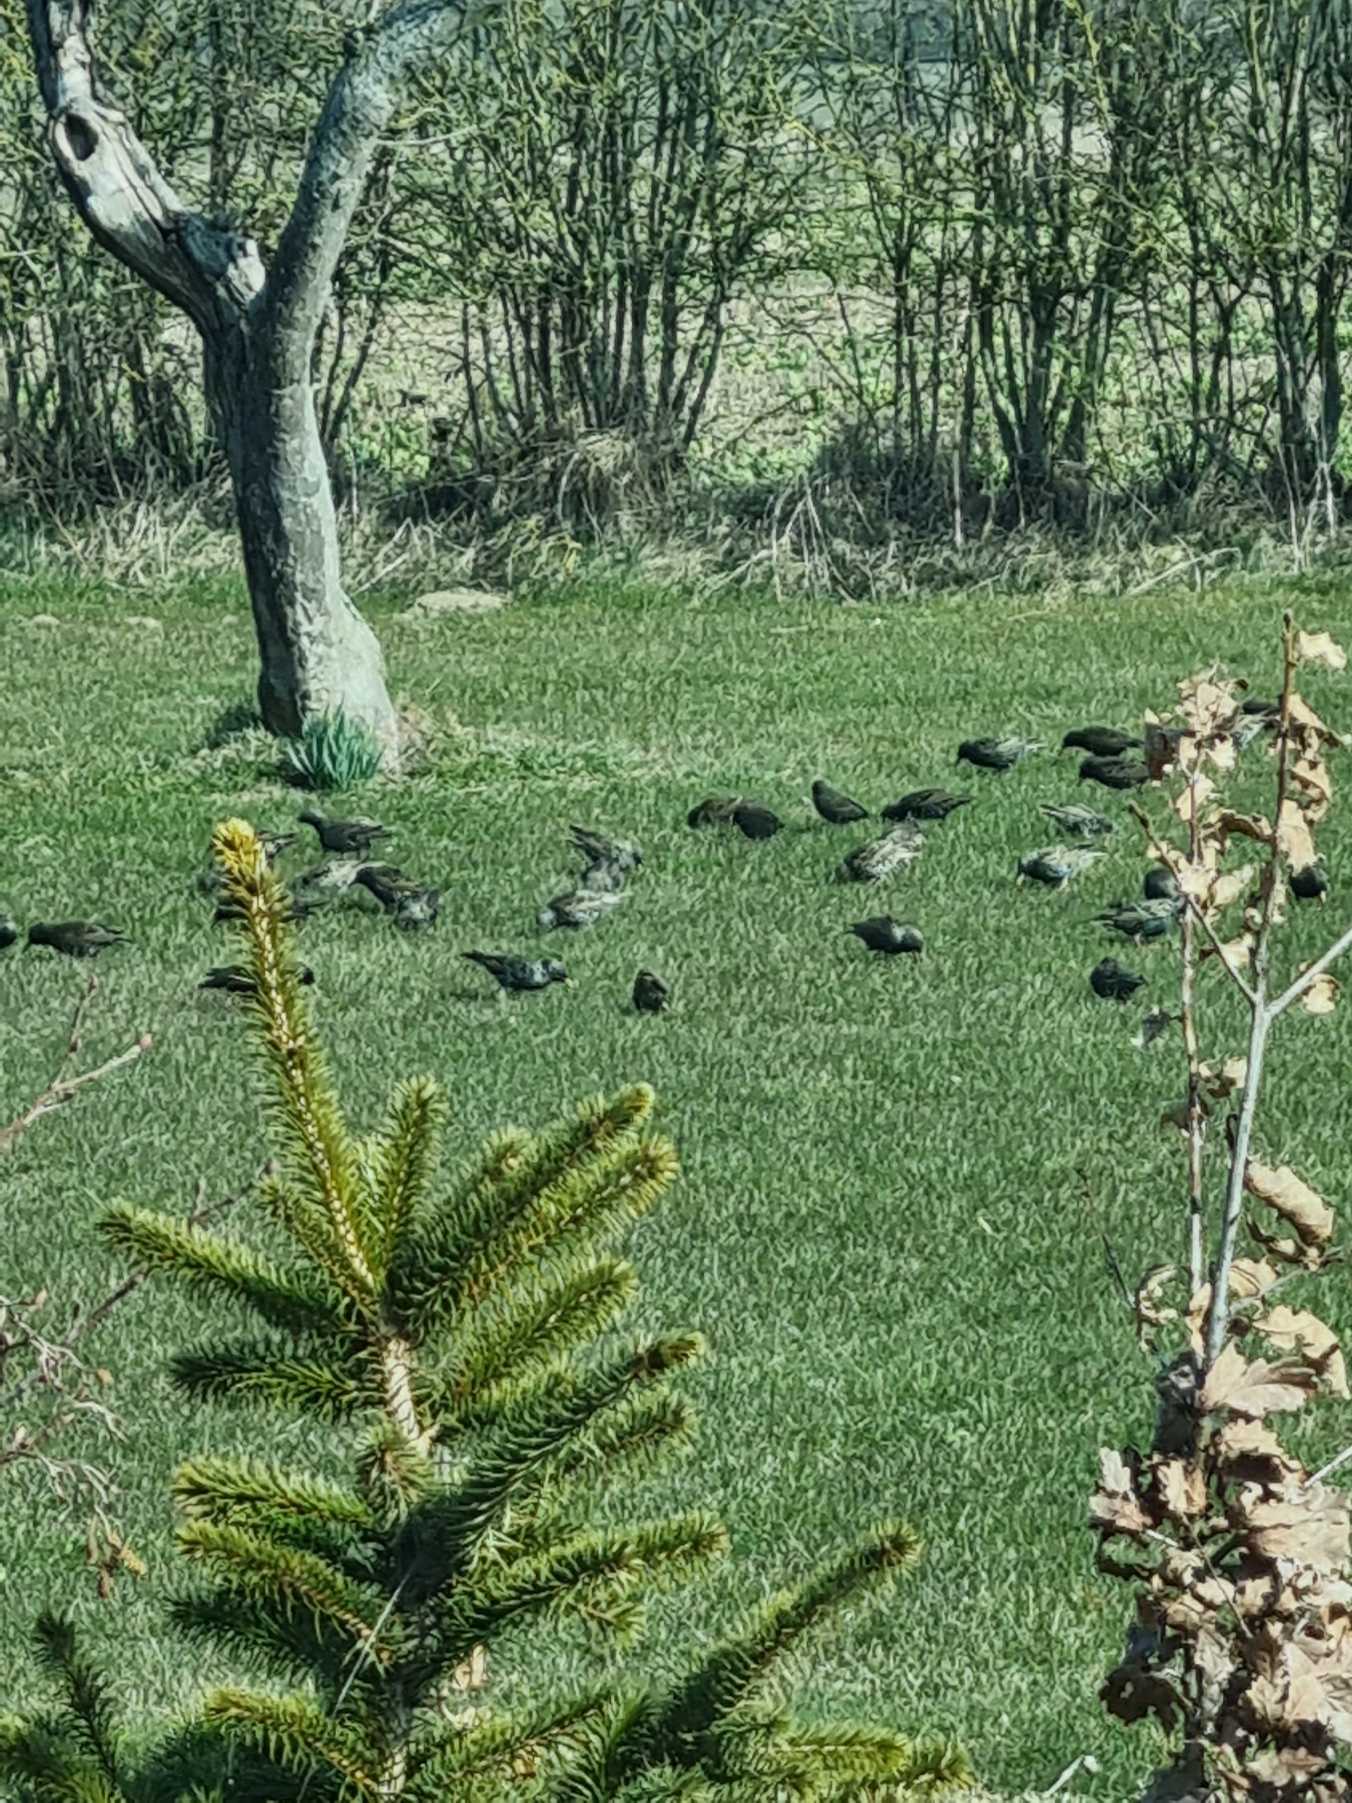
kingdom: Animalia
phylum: Chordata
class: Aves
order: Passeriformes
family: Sturnidae
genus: Sturnus
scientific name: Sturnus vulgaris
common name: Stær
